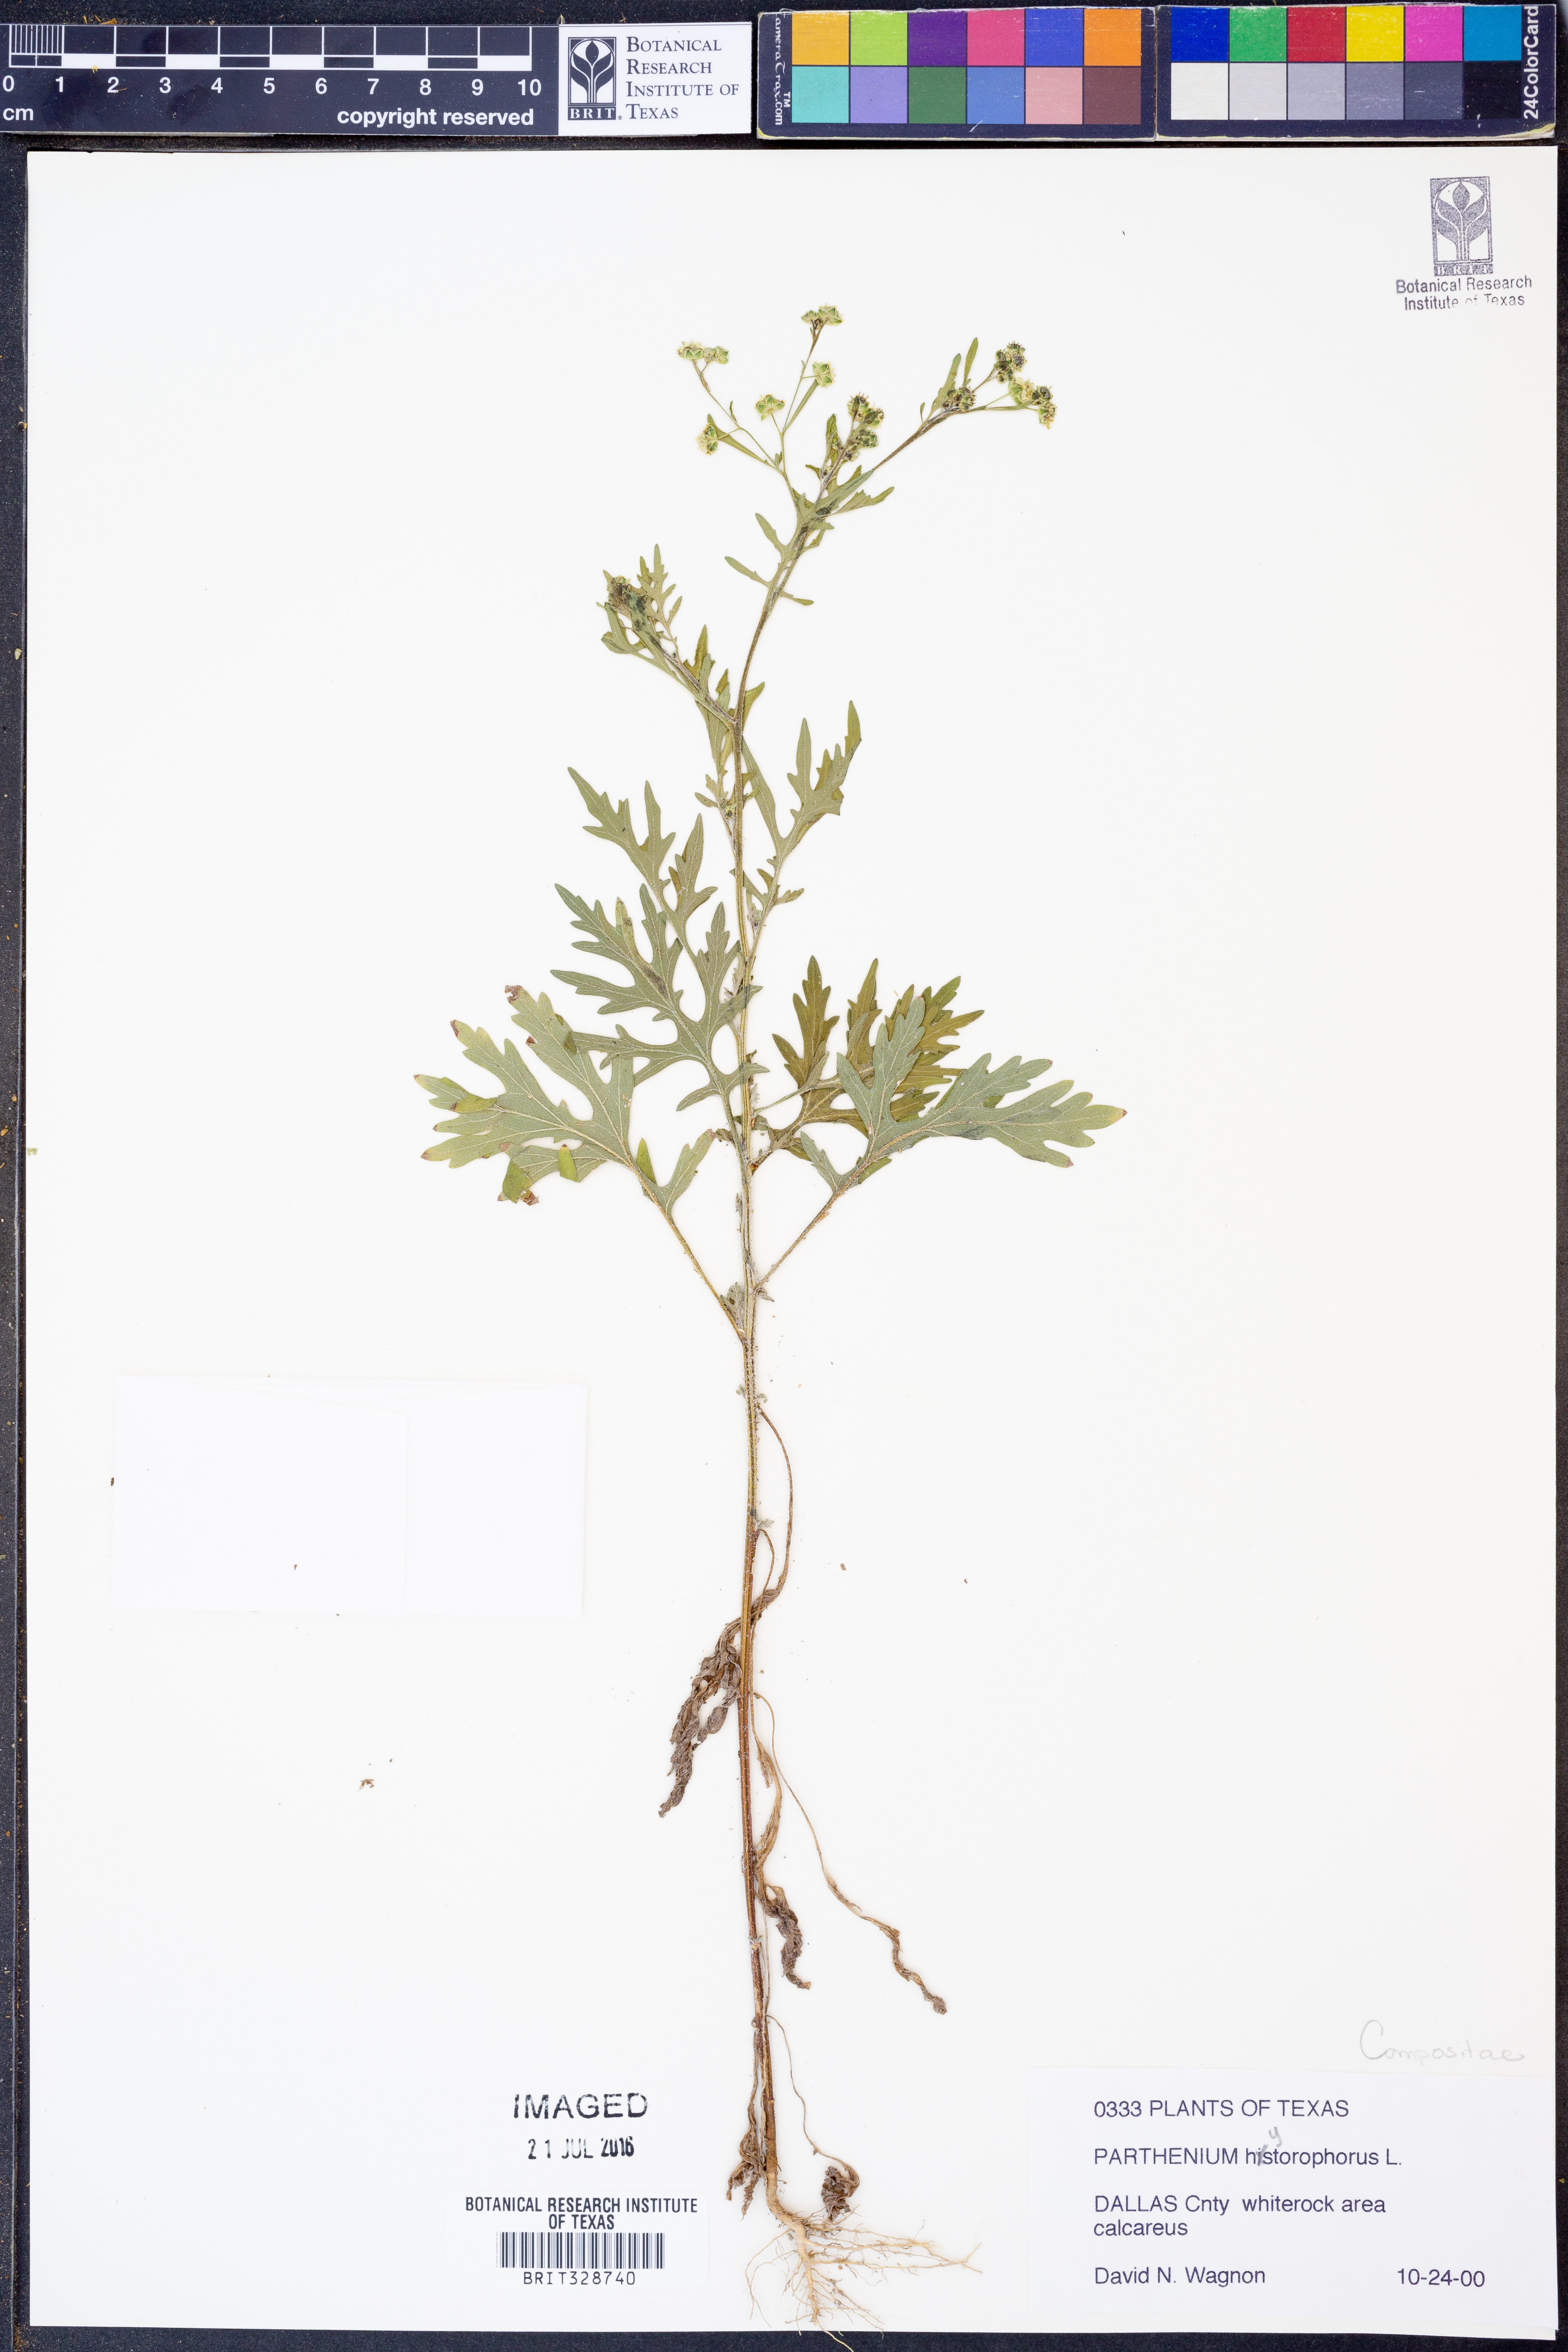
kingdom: Plantae
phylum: Tracheophyta
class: Magnoliopsida
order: Asterales
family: Asteraceae
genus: Parthenium
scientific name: Parthenium hysterophorus
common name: Santa maria feverfew
